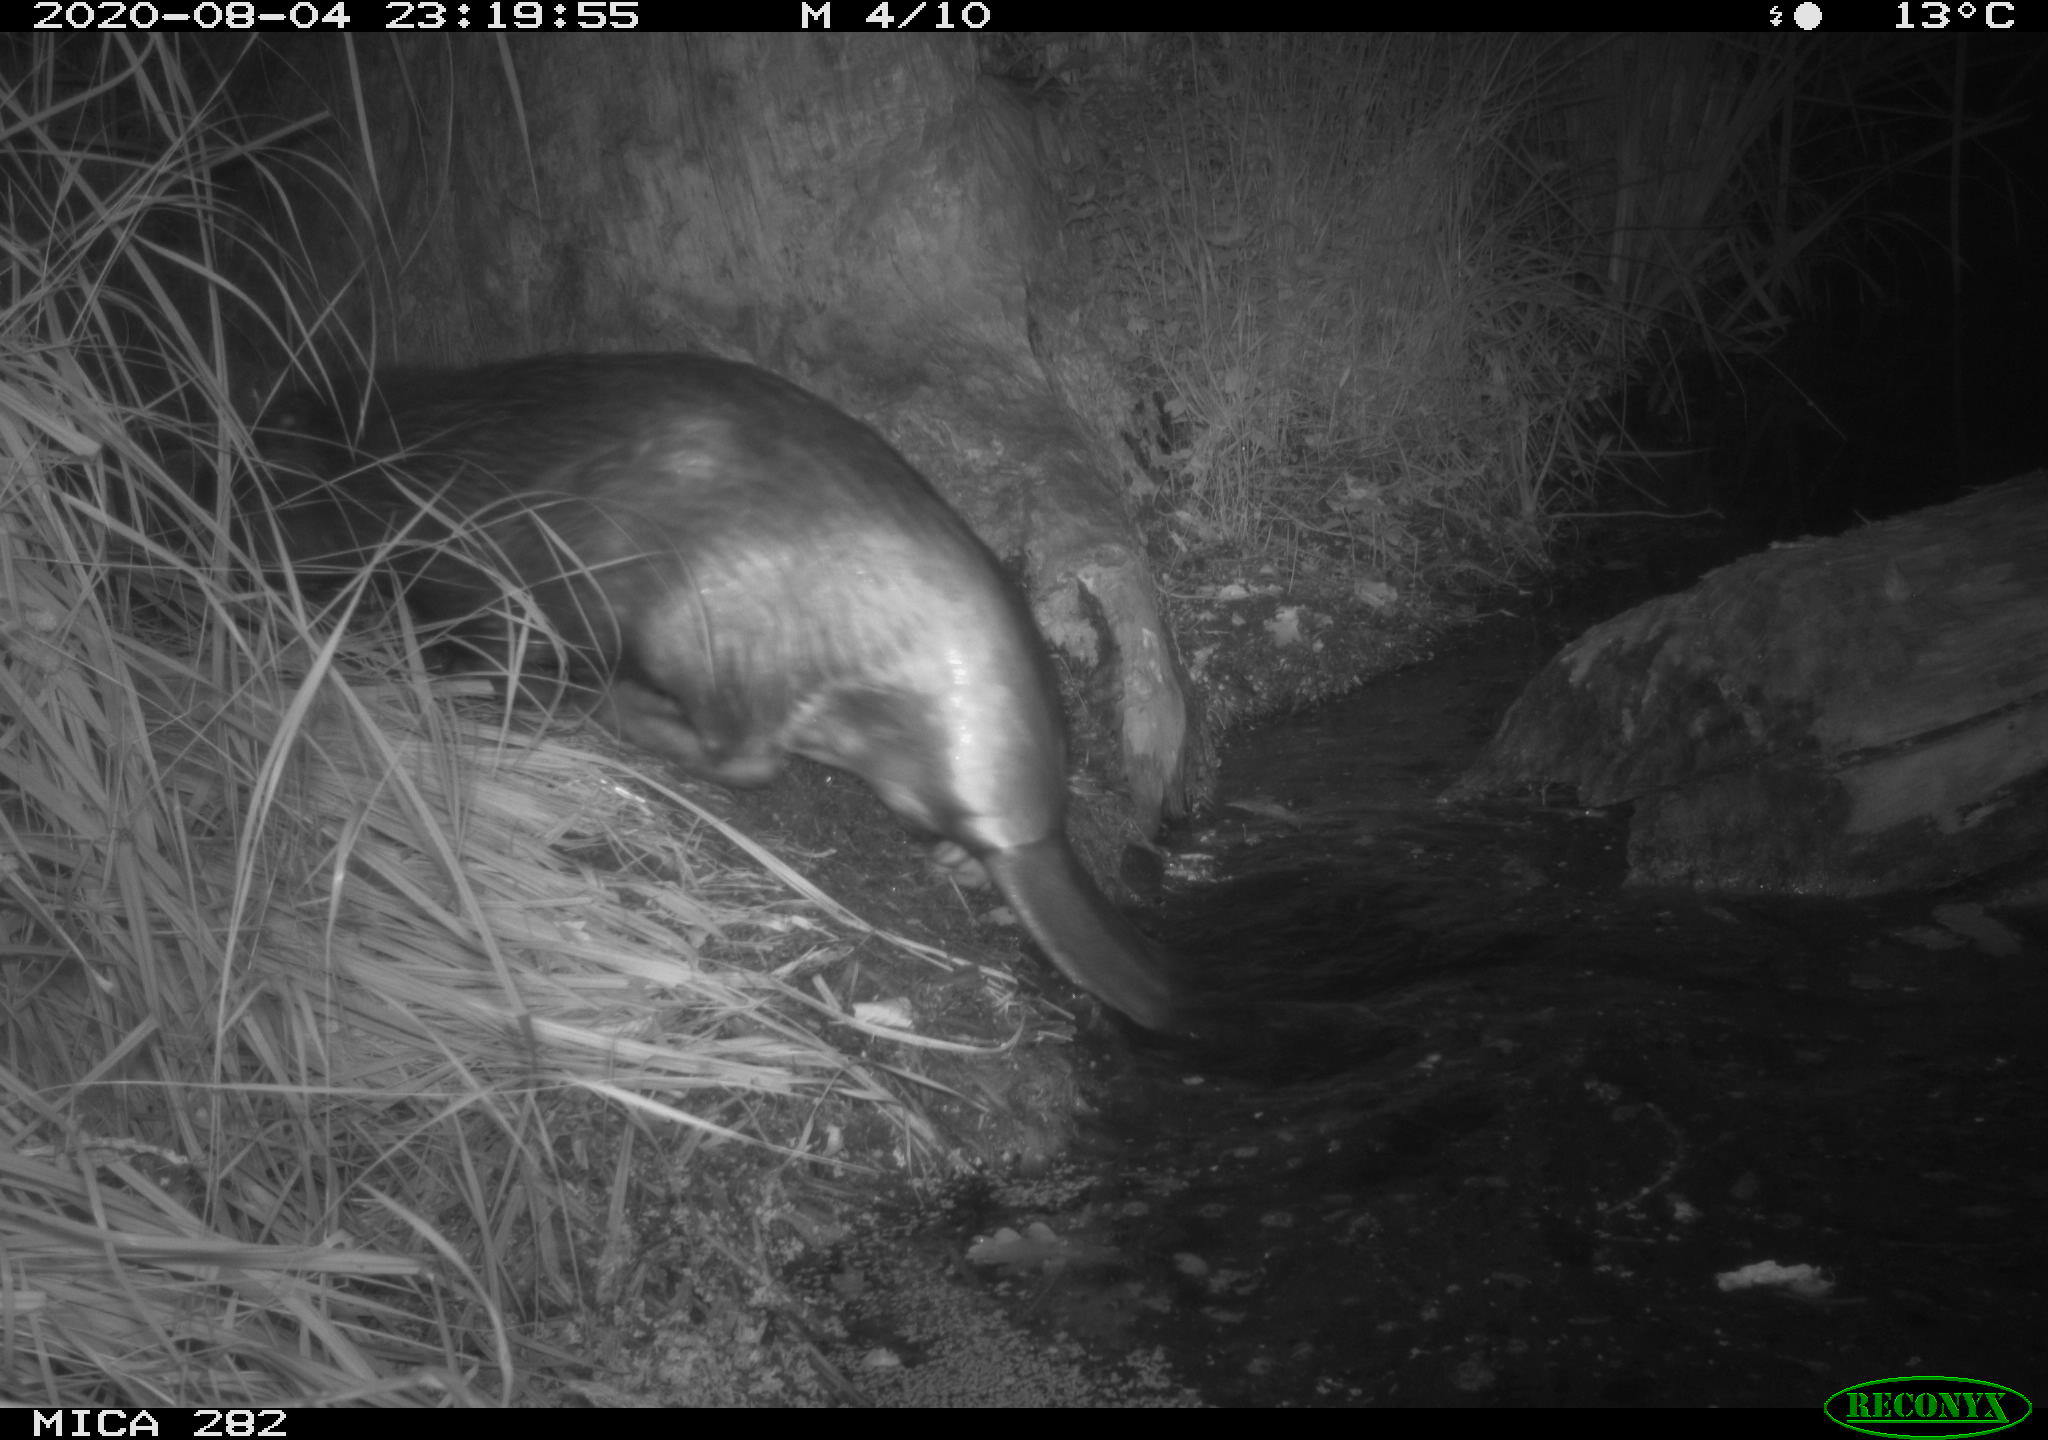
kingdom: Animalia
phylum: Chordata
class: Mammalia
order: Rodentia
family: Castoridae
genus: Castor
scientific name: Castor fiber
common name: Eurasian beaver
